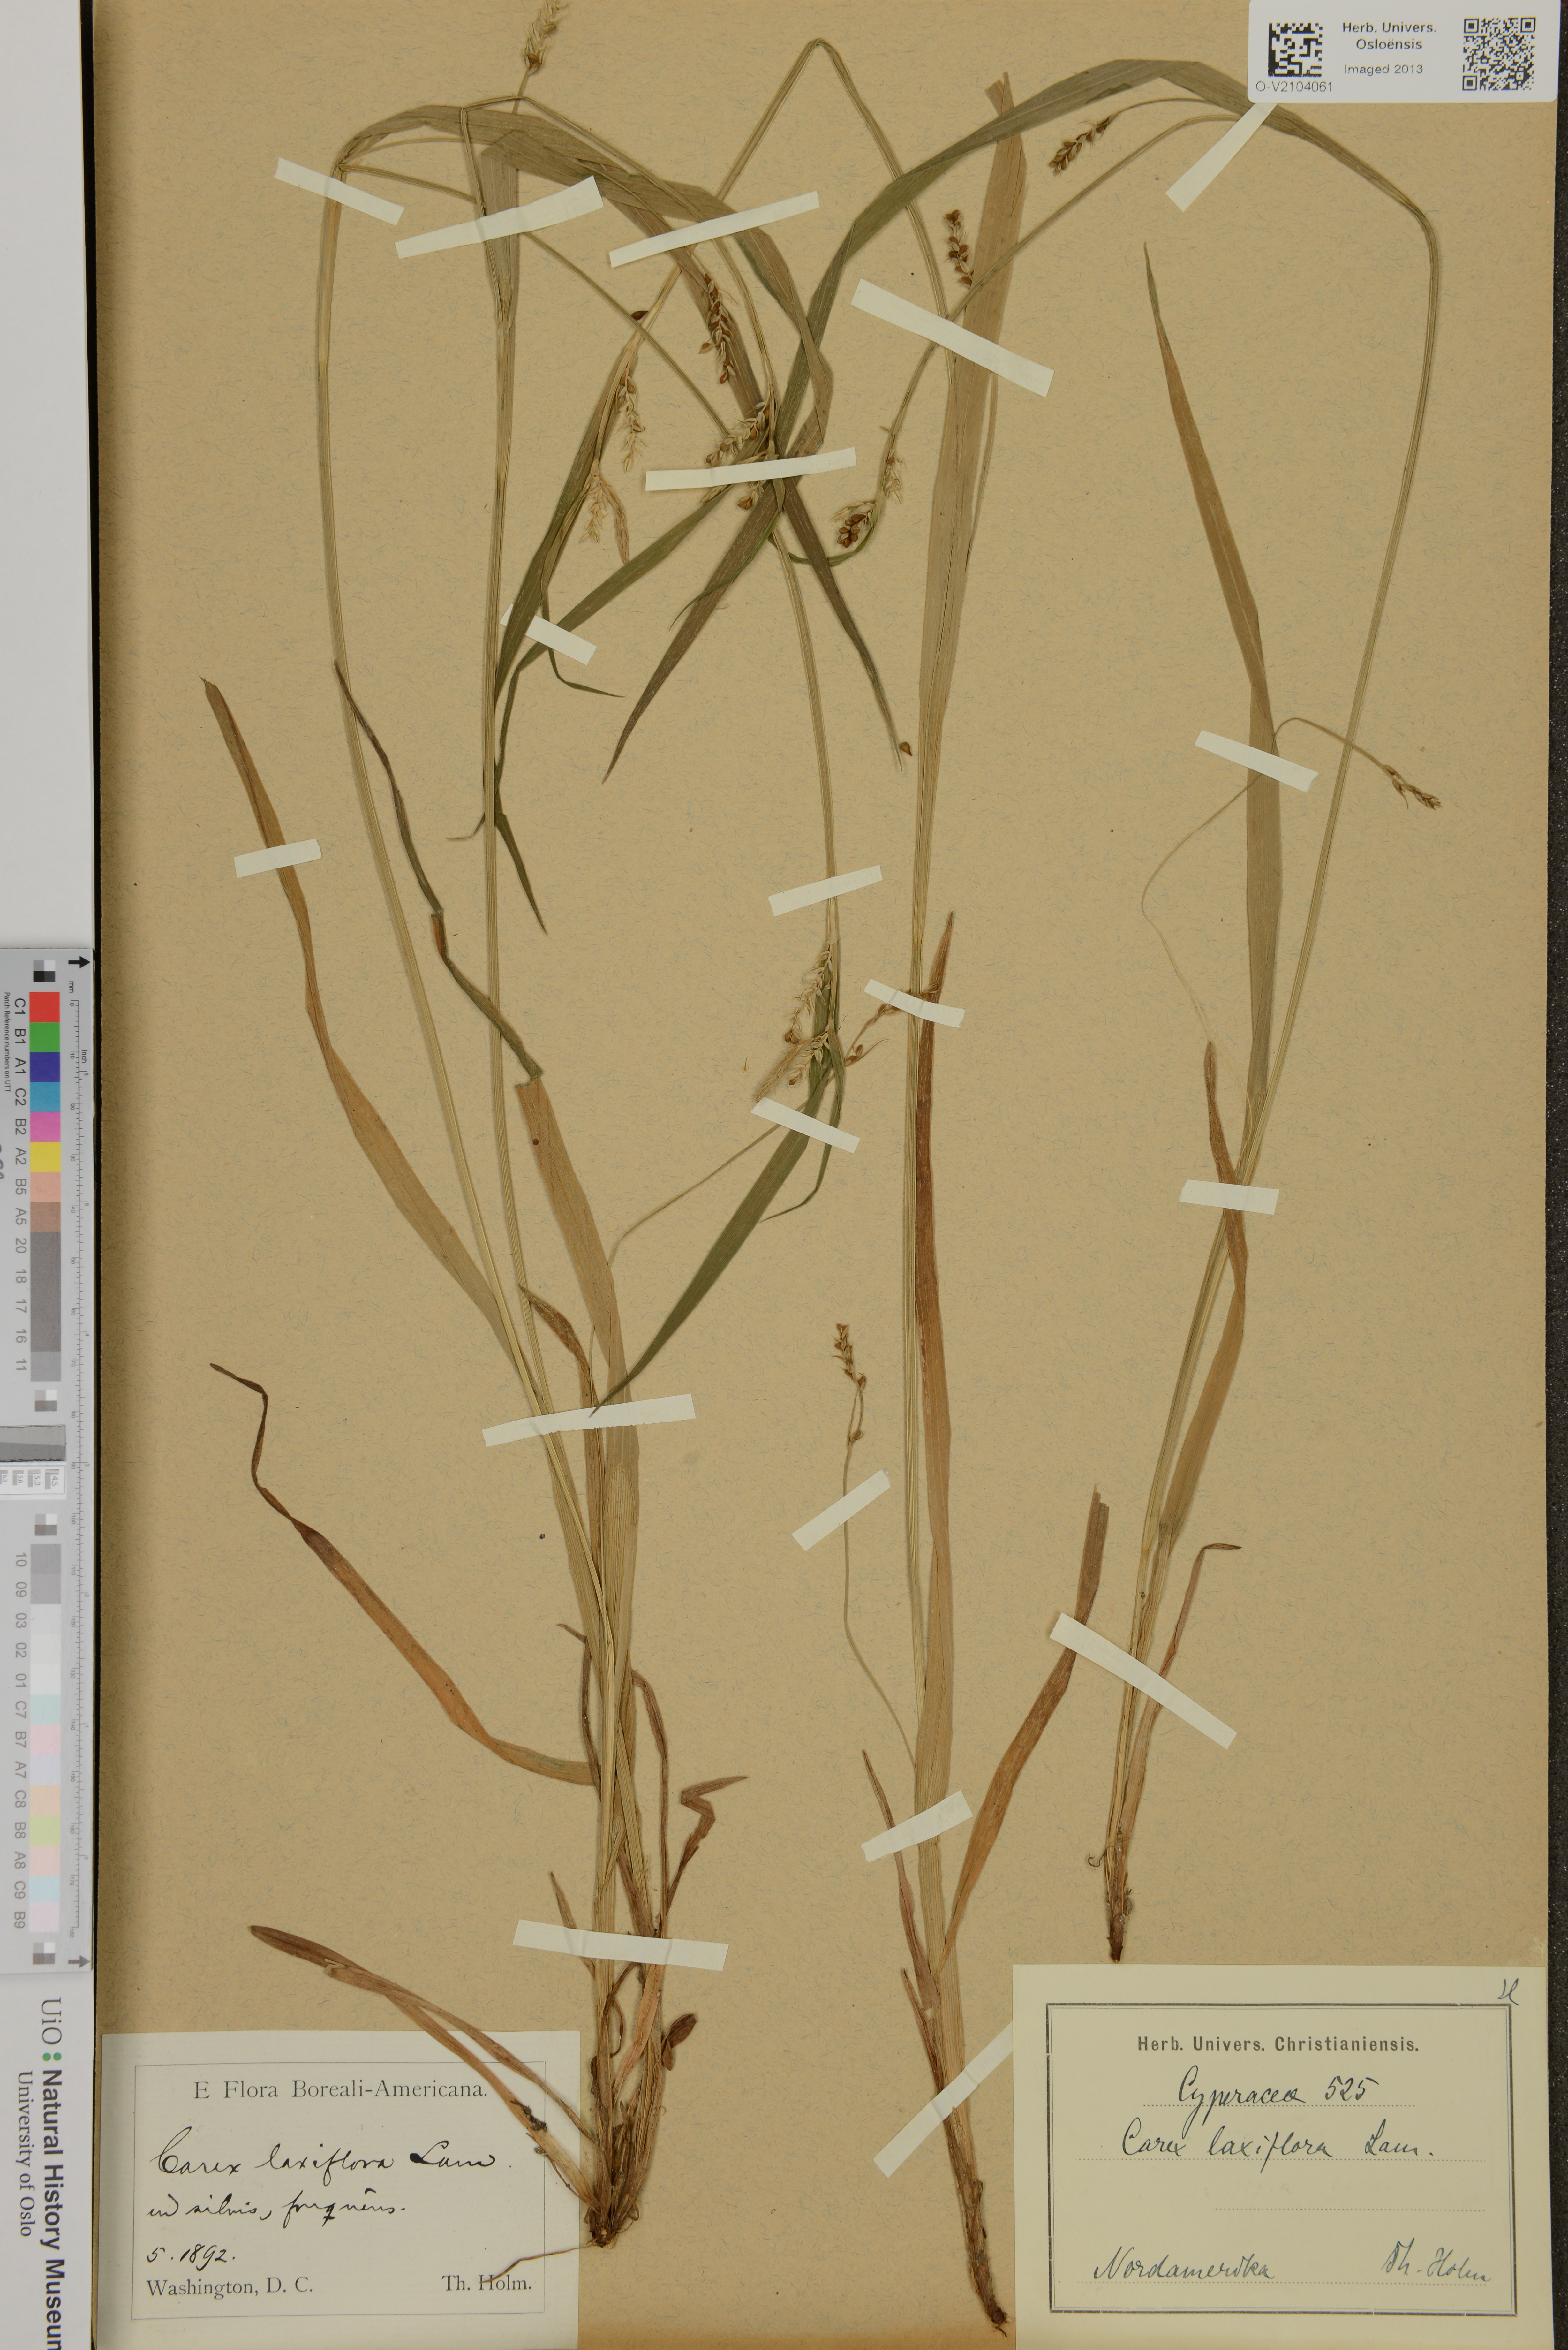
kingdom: Plantae
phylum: Tracheophyta
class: Liliopsida
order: Poales
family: Cyperaceae
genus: Carex
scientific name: Carex laxiflora
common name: Beech wood sedge
